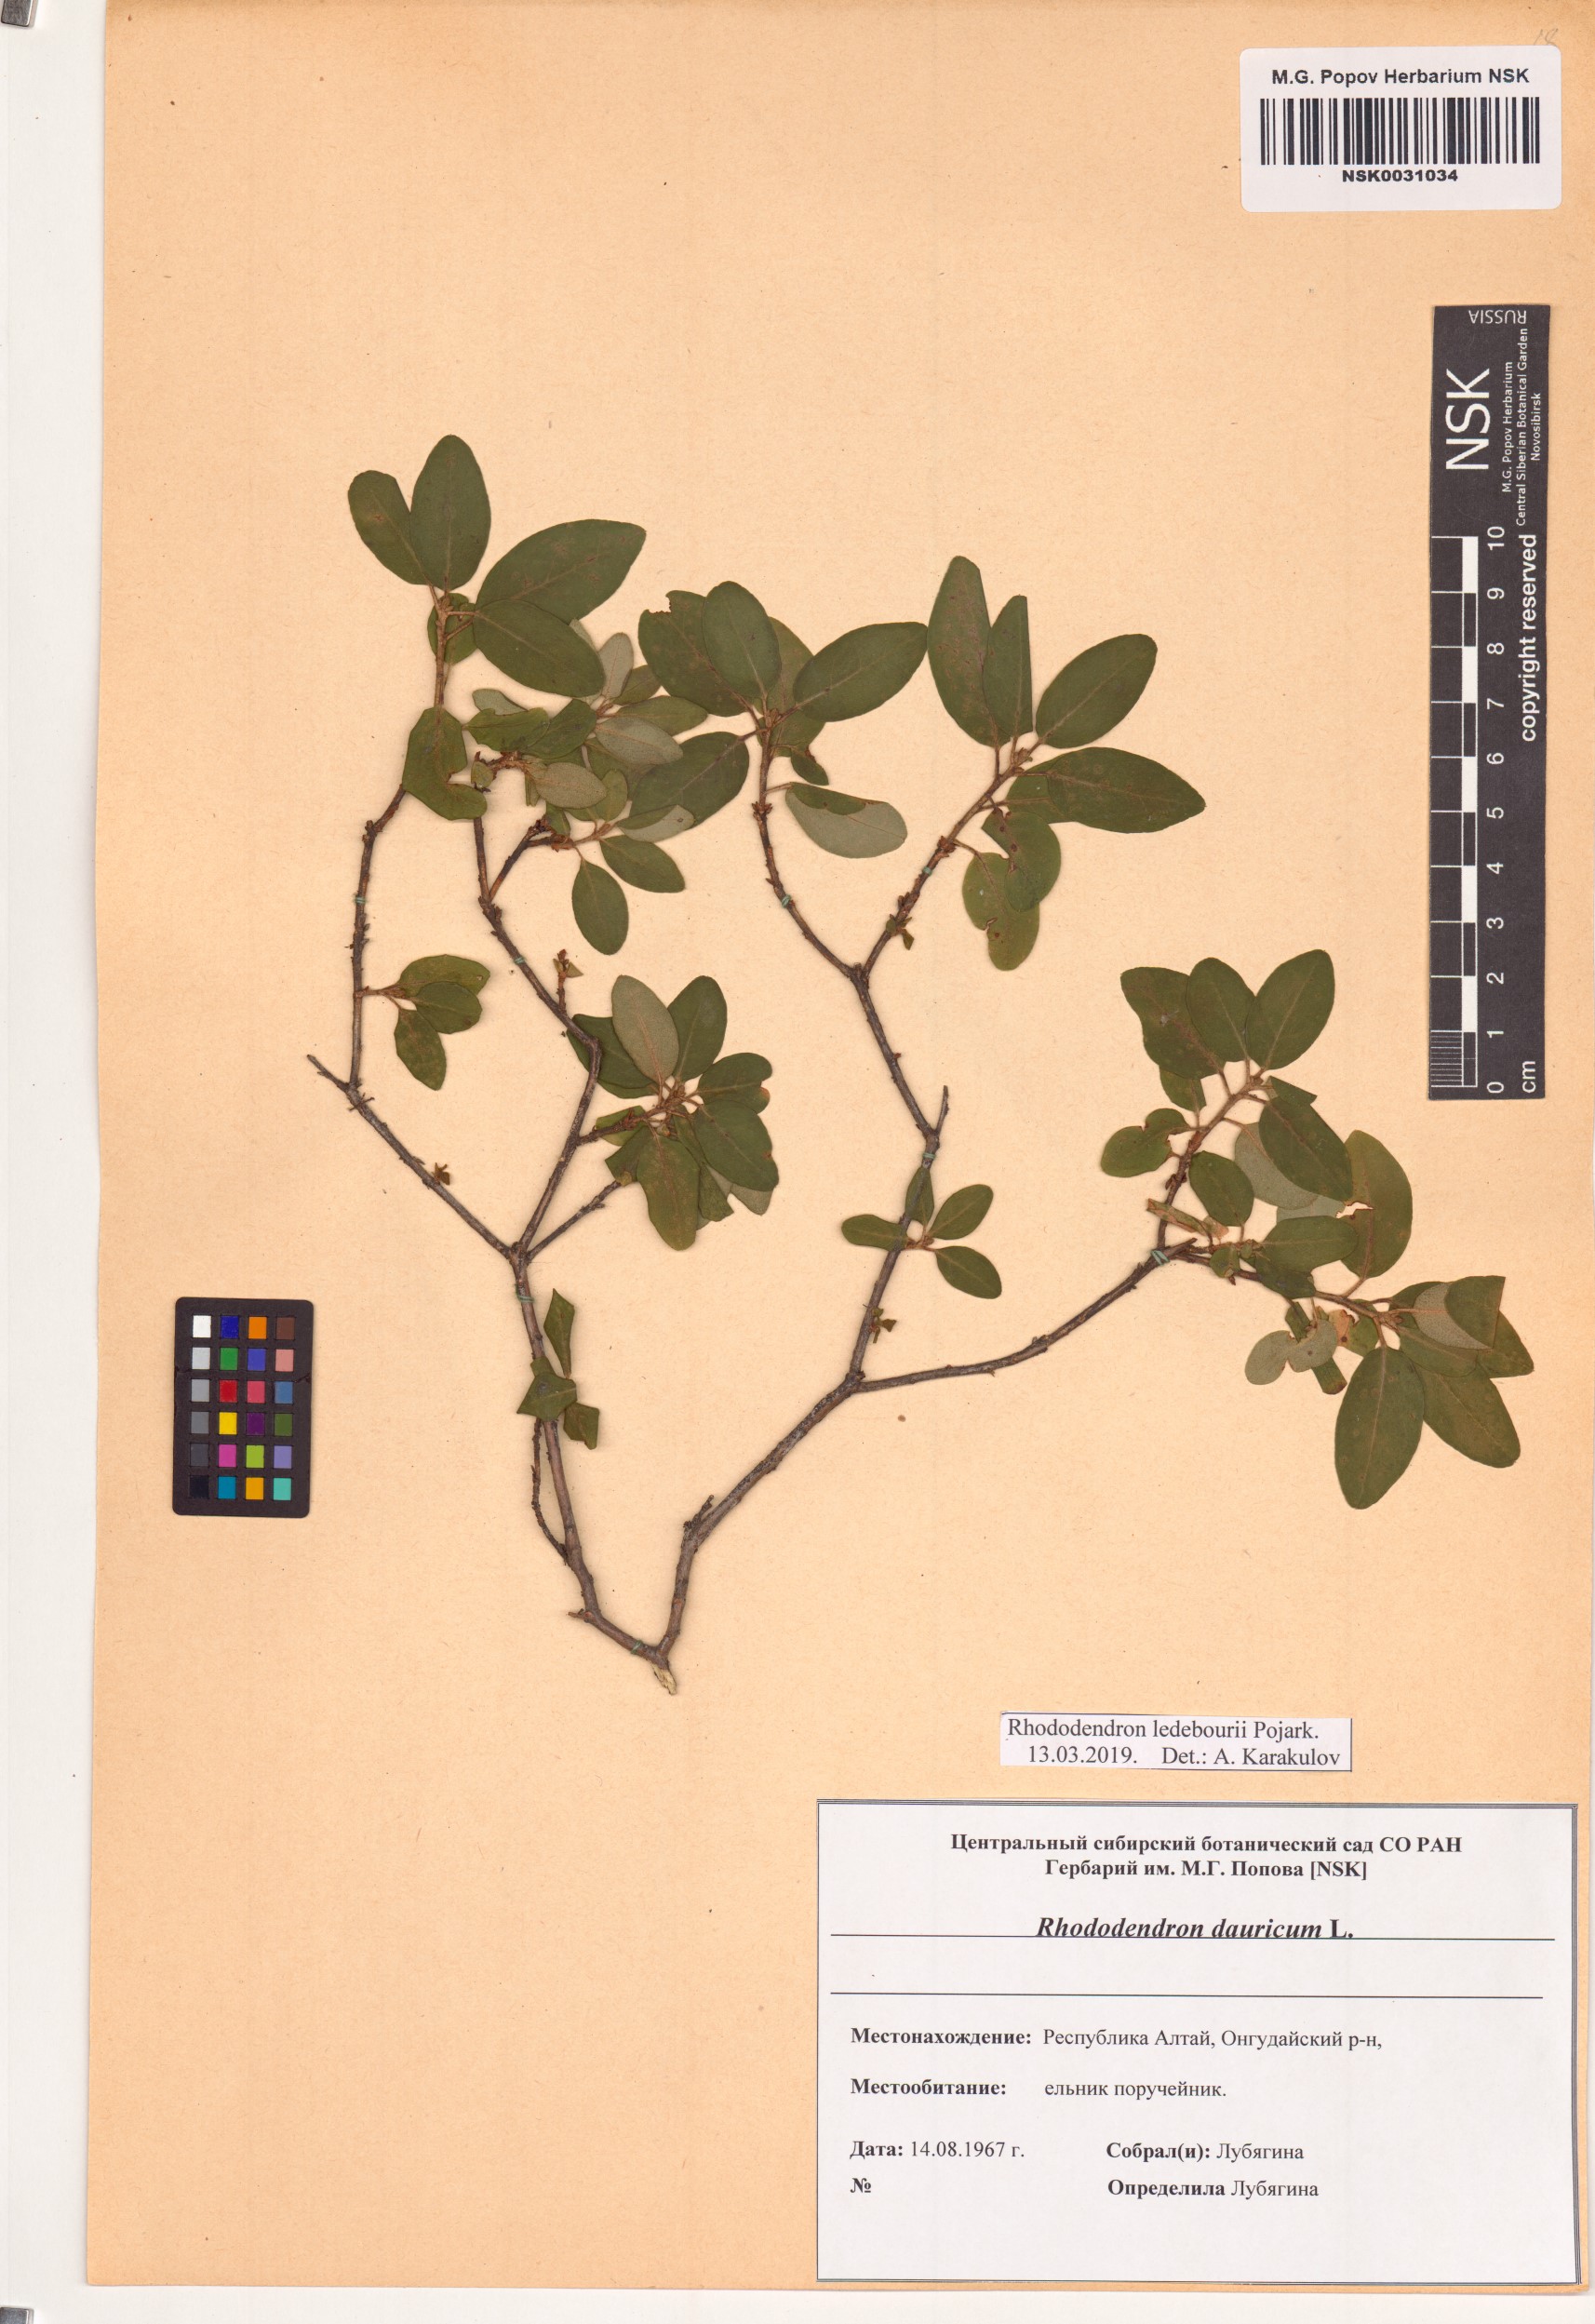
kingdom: Plantae
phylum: Tracheophyta
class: Magnoliopsida
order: Ericales
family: Ericaceae
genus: Rhododendron
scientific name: Rhododendron dauricum
